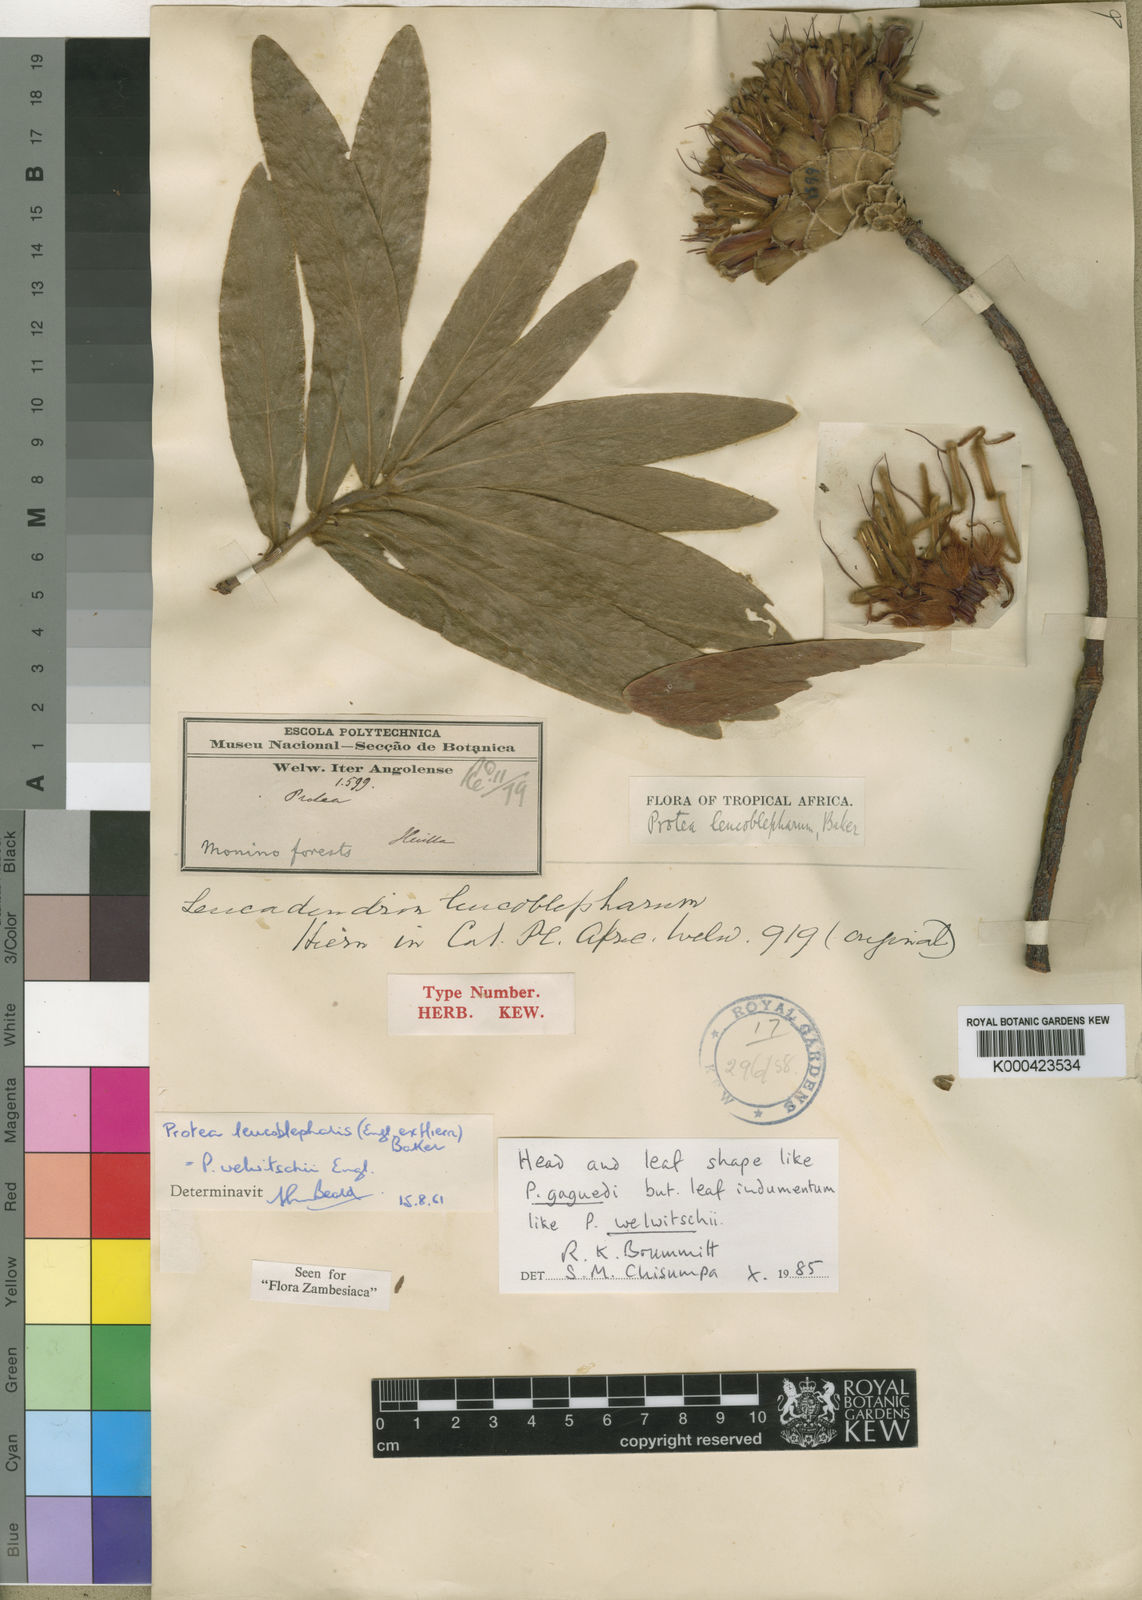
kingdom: Plantae
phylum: Tracheophyta
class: Magnoliopsida
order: Proteales
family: Proteaceae
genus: Protea
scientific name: Protea welwitschii
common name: Cluster-head protea
